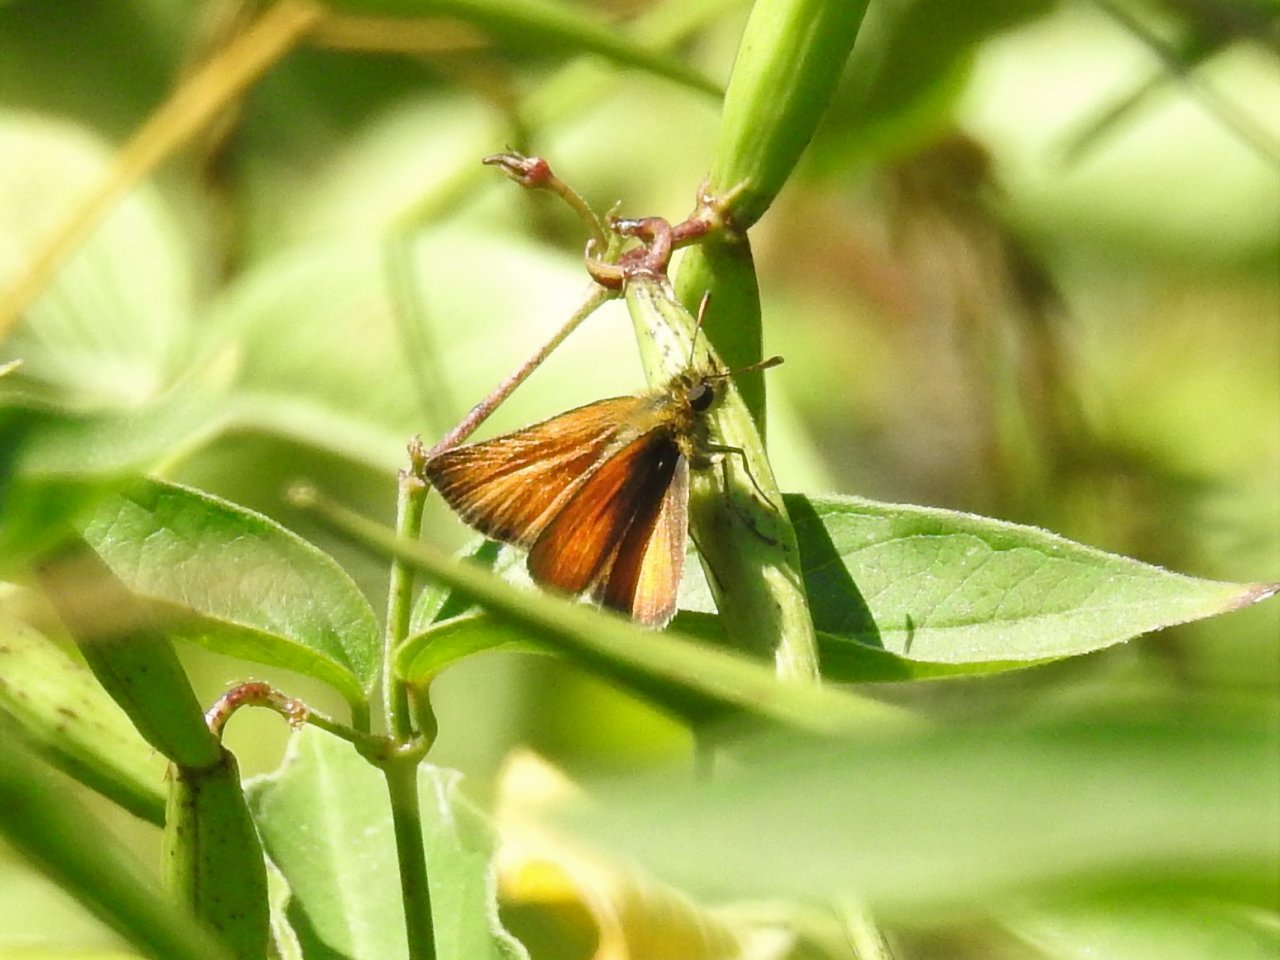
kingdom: Animalia
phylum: Arthropoda
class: Insecta
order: Lepidoptera
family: Hesperiidae
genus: Thymelicus
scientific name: Thymelicus lineola
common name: European Skipper
